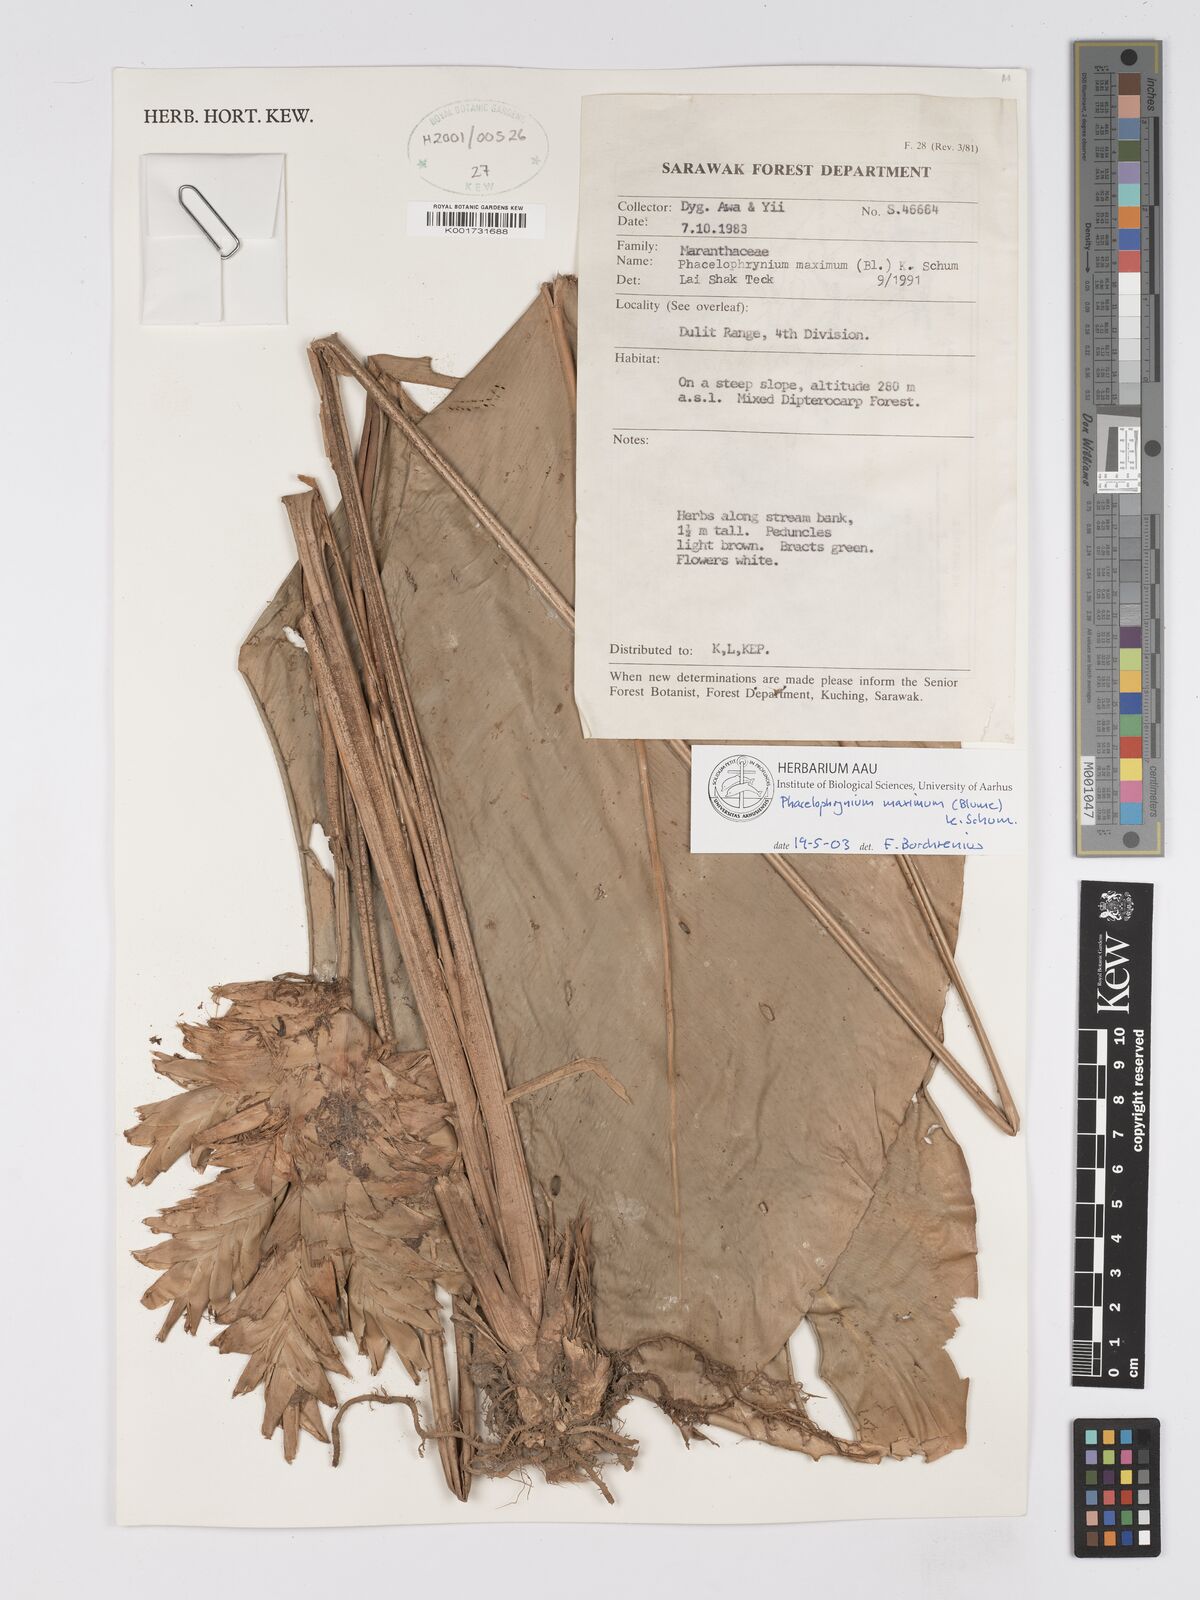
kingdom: Plantae
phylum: Tracheophyta
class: Liliopsida
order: Zingiberales
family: Marantaceae
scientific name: Marantaceae
